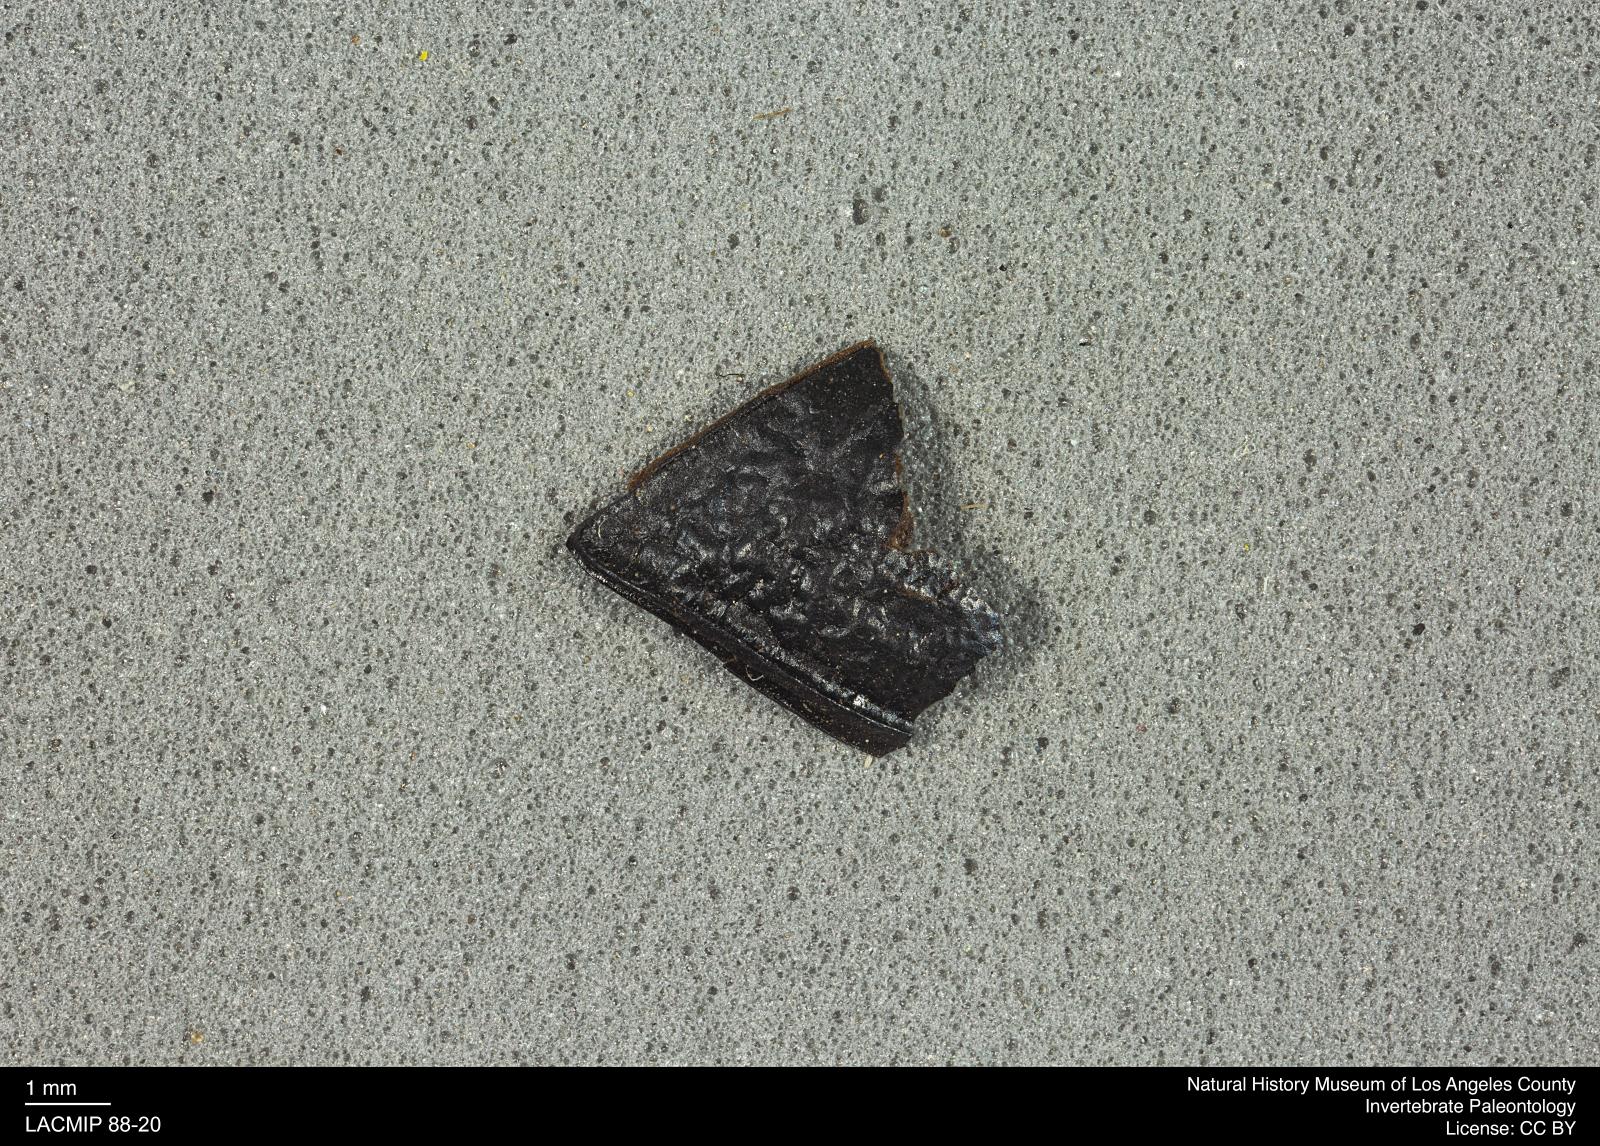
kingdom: Animalia
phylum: Arthropoda
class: Insecta
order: Coleoptera
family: Tenebrionidae
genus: Coniontis
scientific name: Coniontis abdominalis
